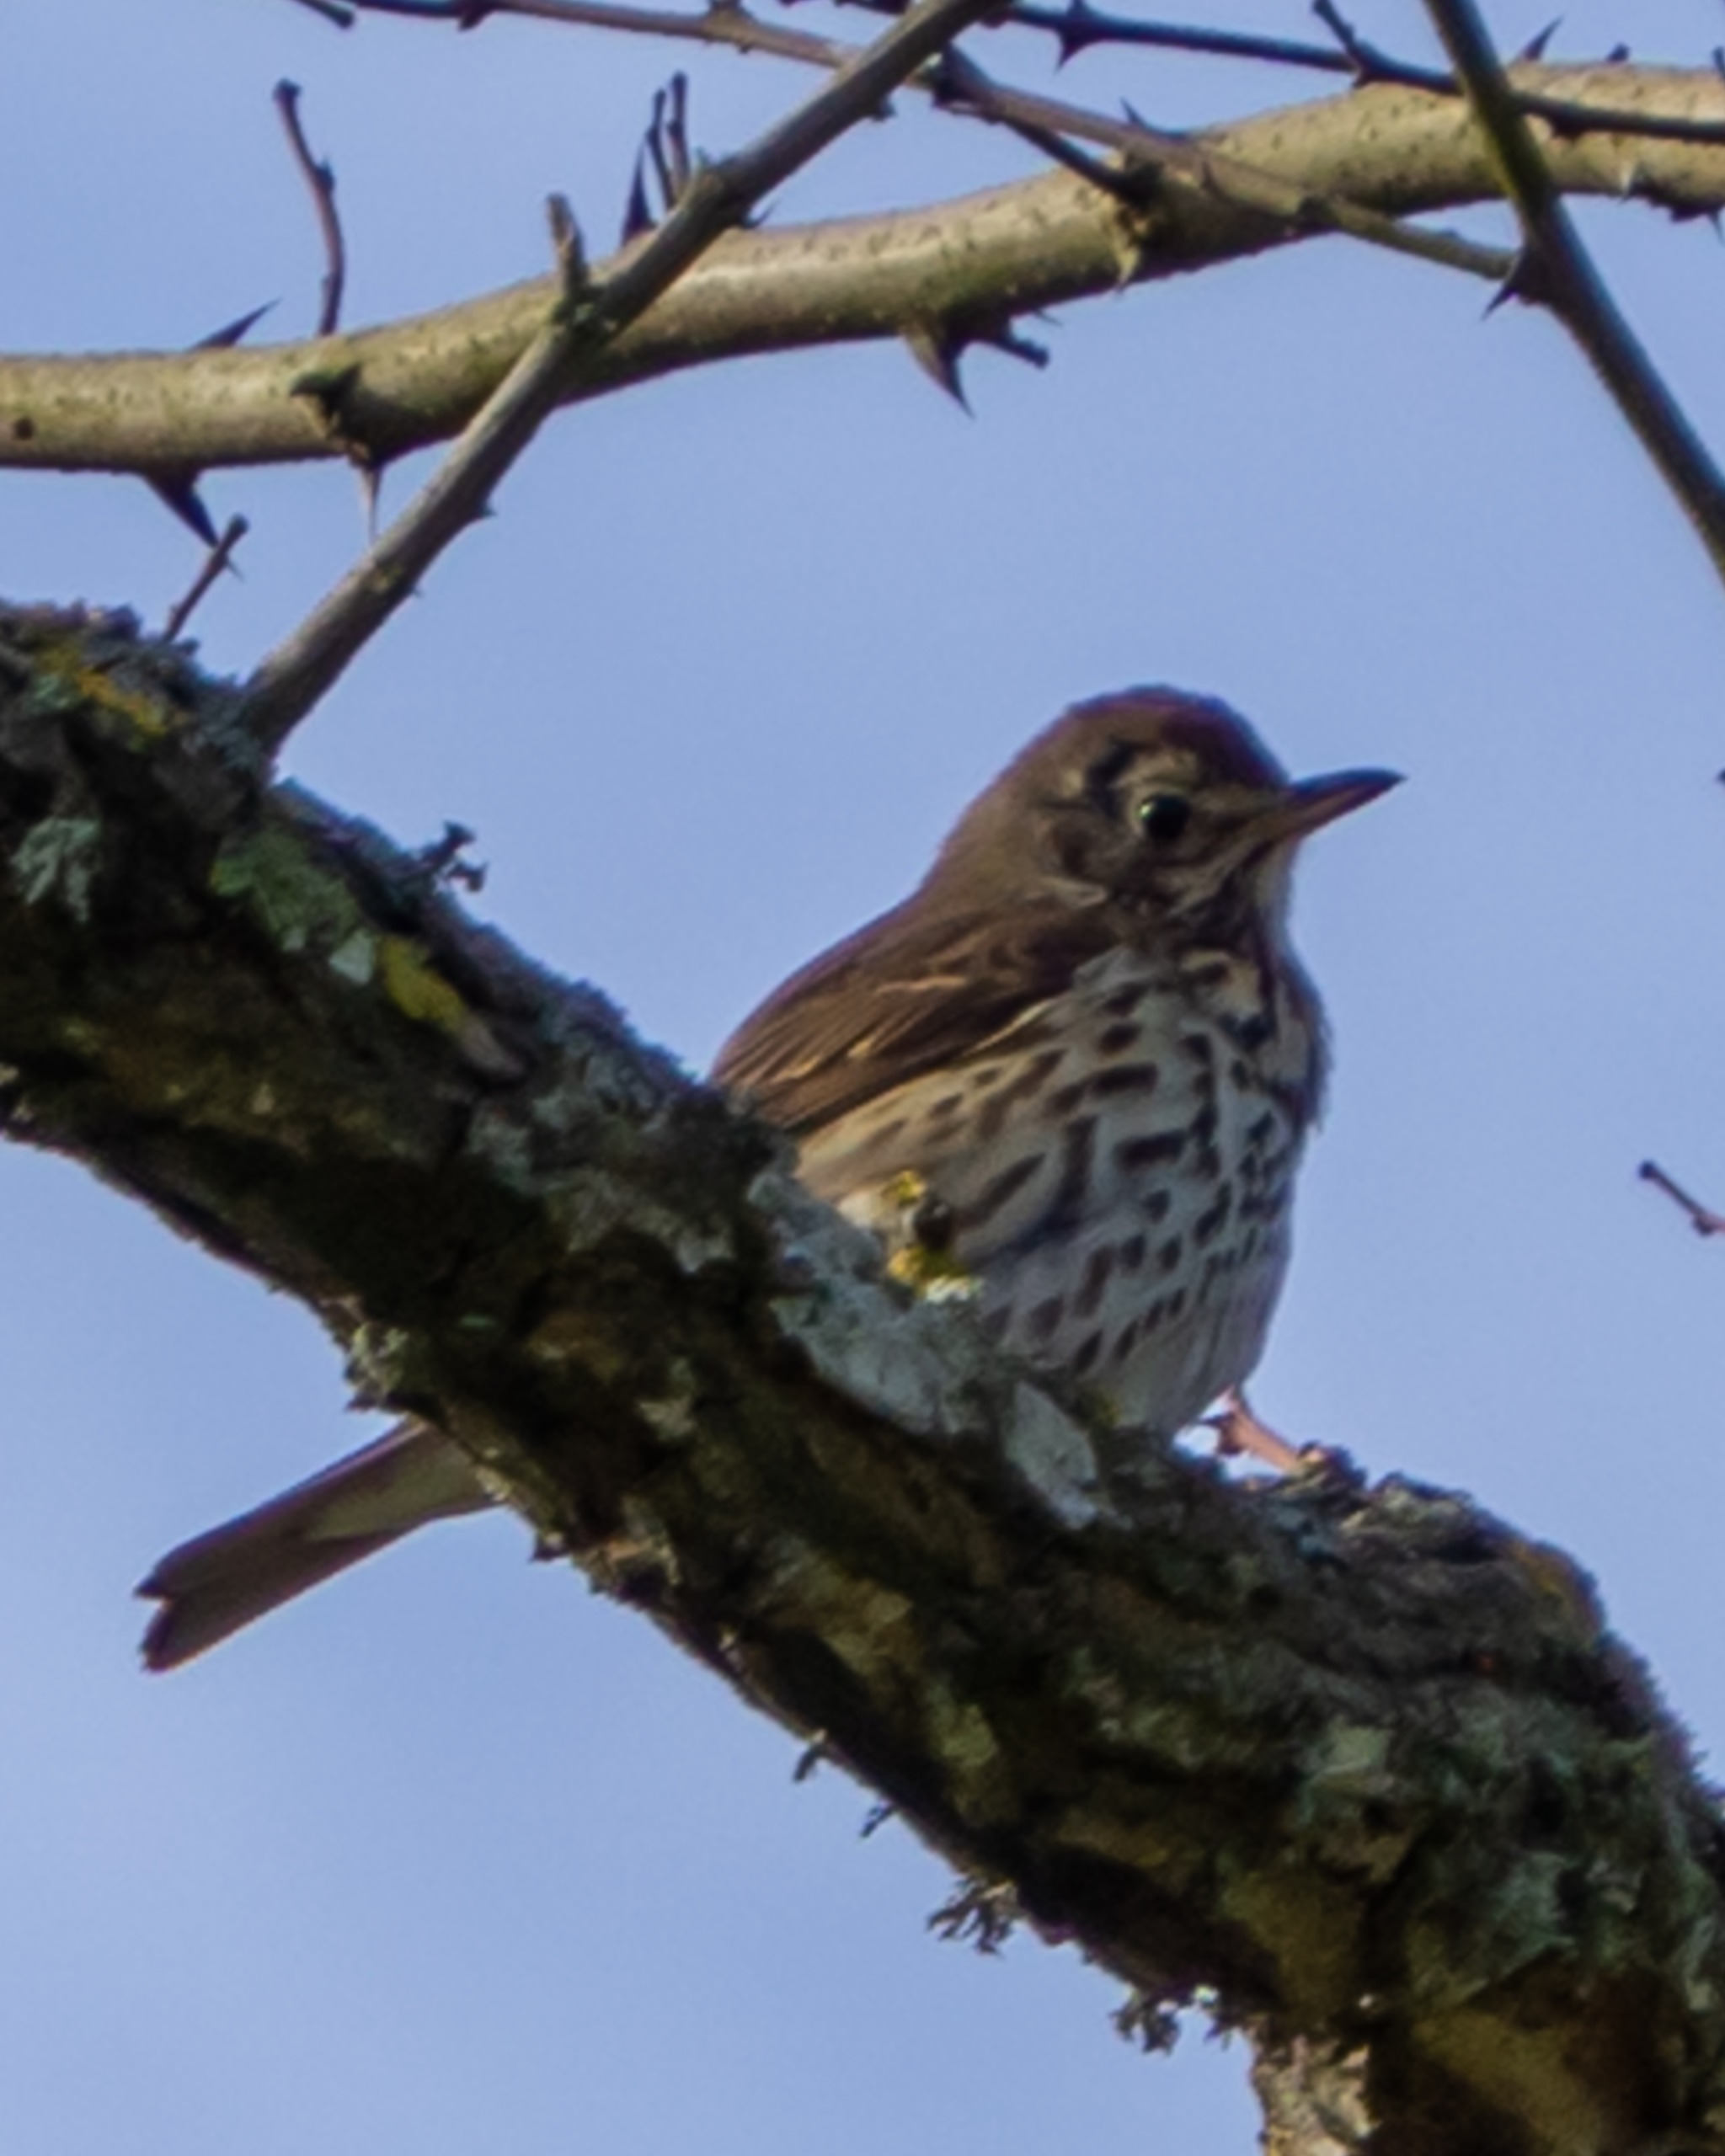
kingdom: Animalia
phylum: Chordata
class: Aves
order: Passeriformes
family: Turdidae
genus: Turdus
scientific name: Turdus philomelos
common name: Sangdrossel
